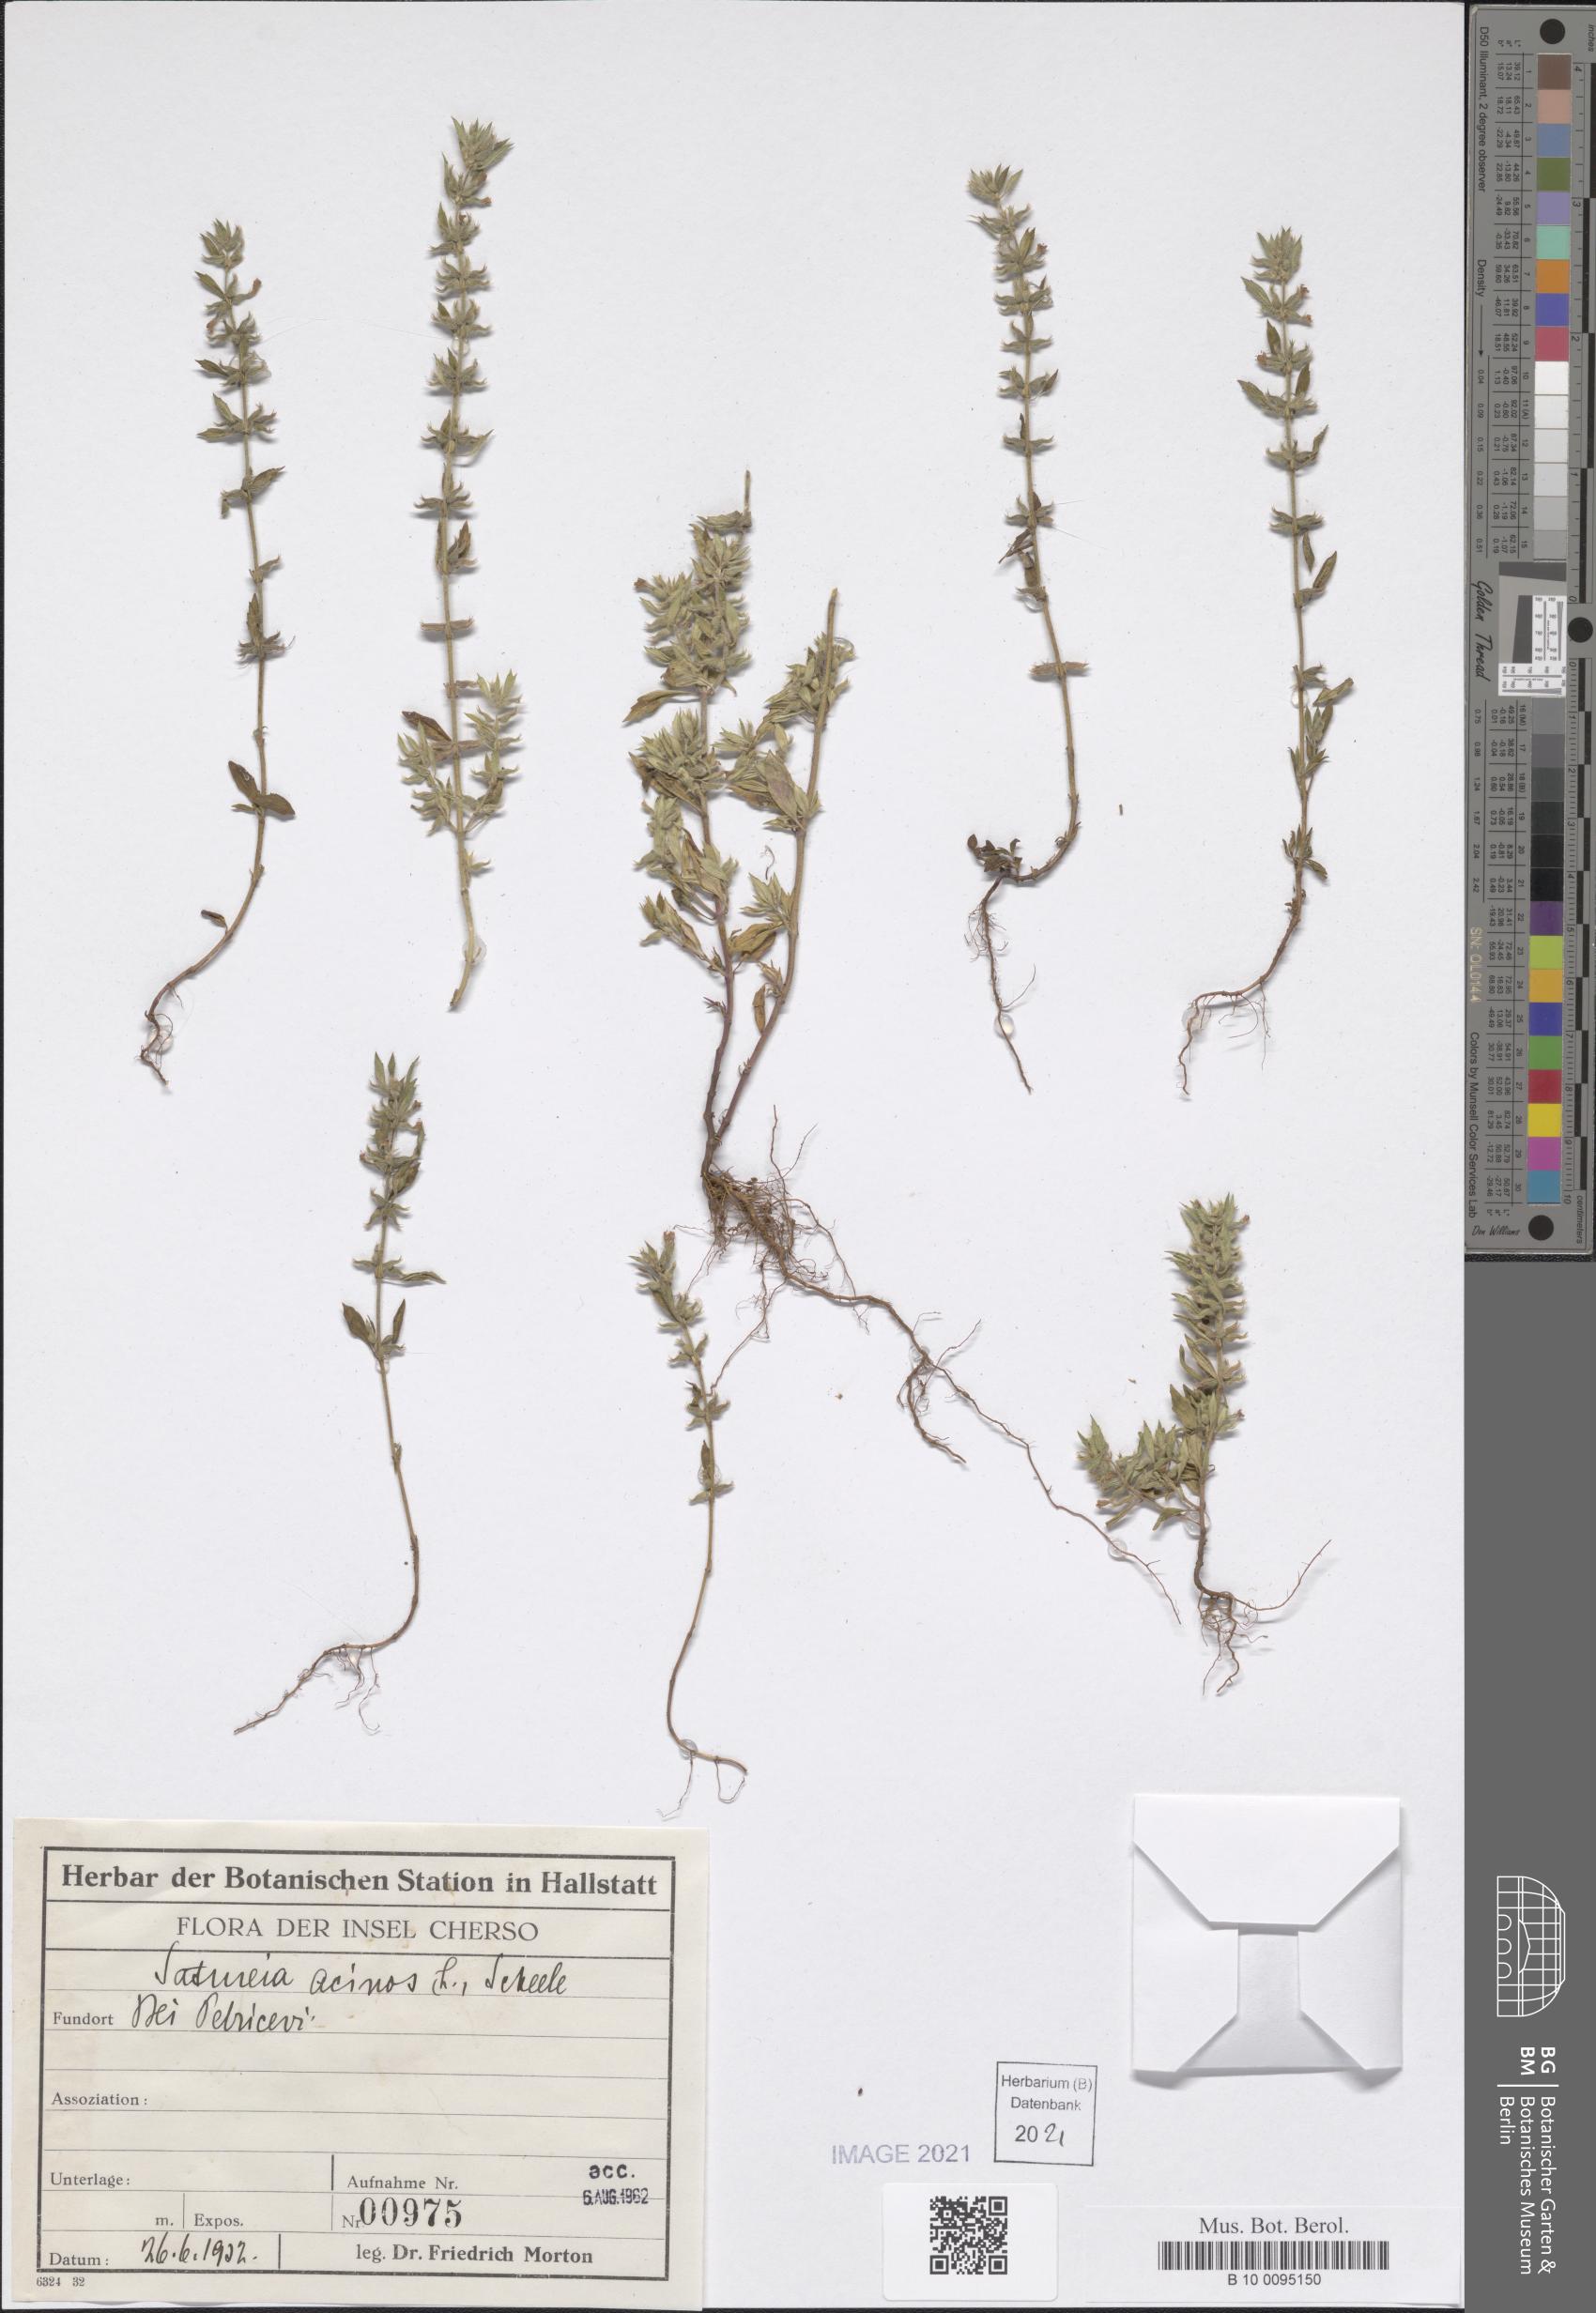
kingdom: Plantae
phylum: Tracheophyta
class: Magnoliopsida
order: Lamiales
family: Lamiaceae
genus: Clinopodium
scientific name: Clinopodium acinos
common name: Basil thyme
